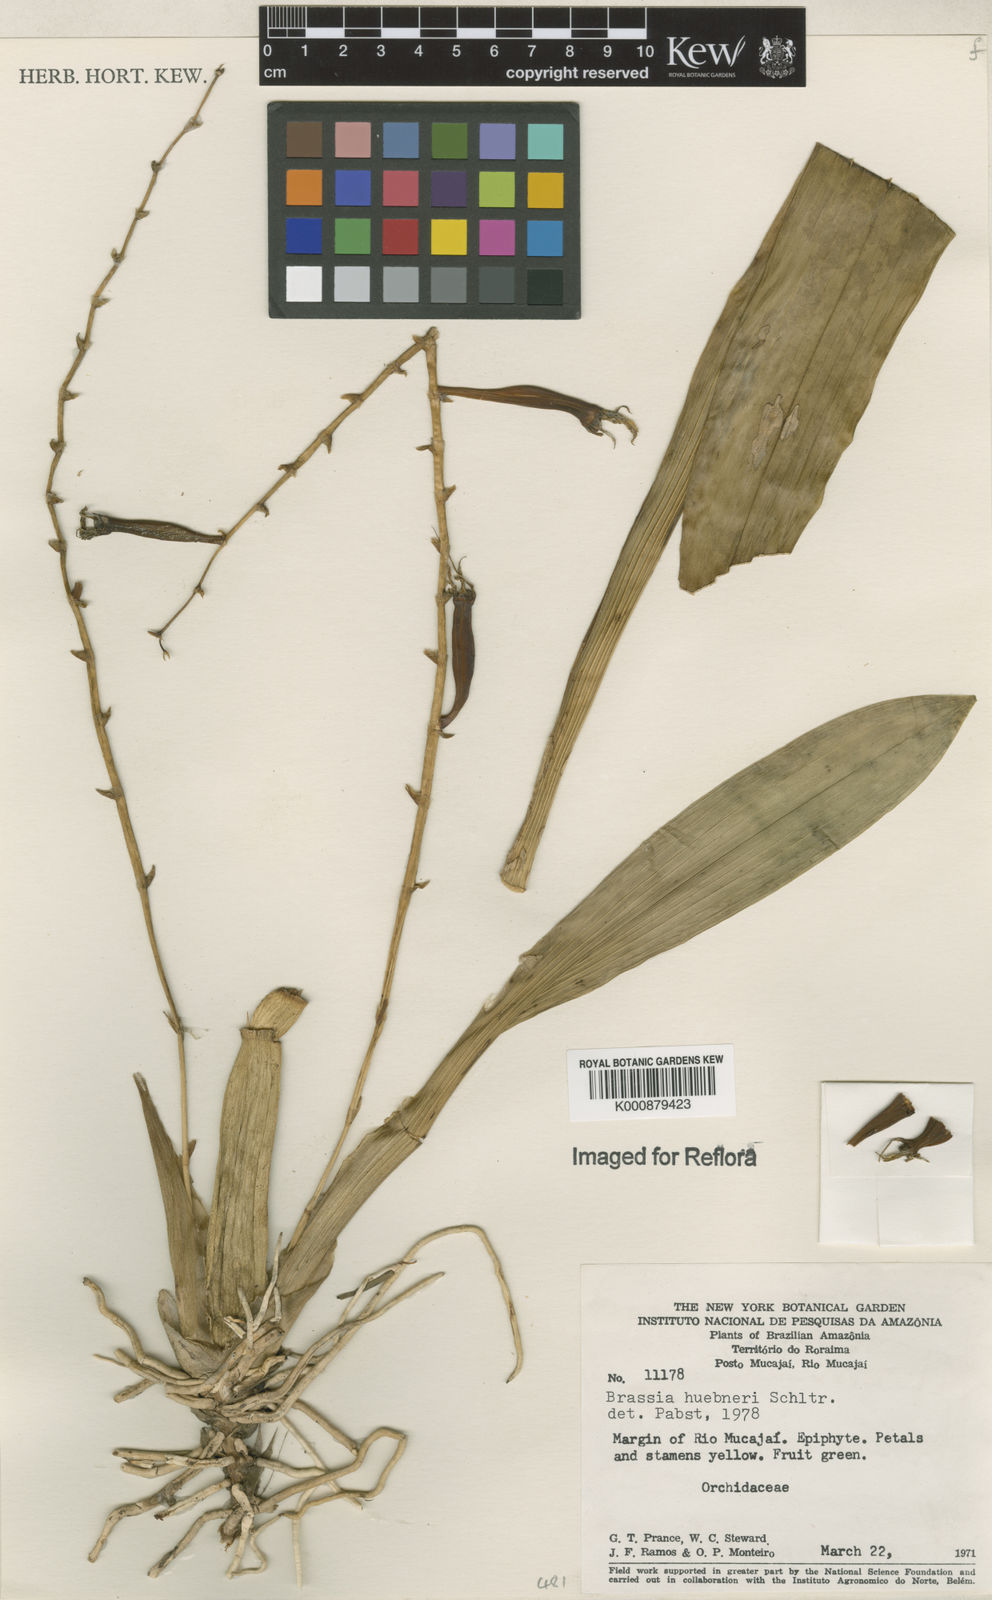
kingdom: Plantae
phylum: Tracheophyta
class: Liliopsida
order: Asparagales
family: Orchidaceae
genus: Brassia
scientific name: Brassia huebneri
